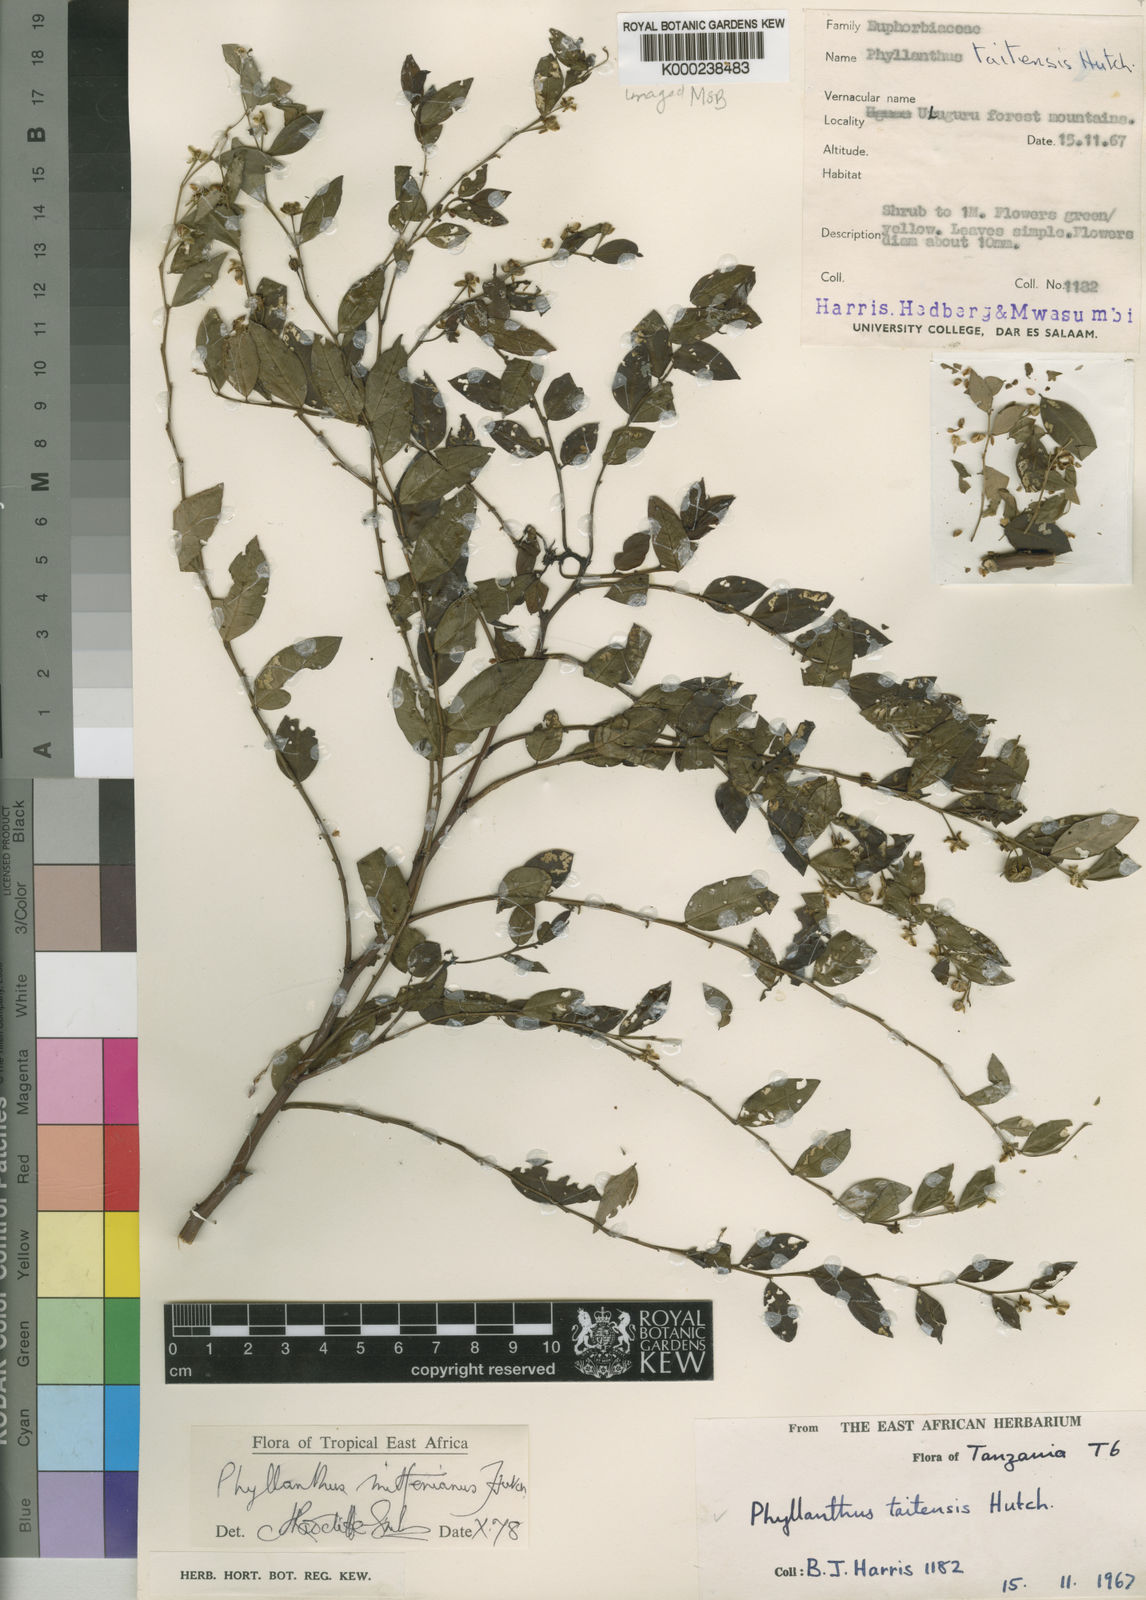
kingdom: Plantae
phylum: Tracheophyta
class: Magnoliopsida
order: Malpighiales
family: Phyllanthaceae
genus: Phyllanthus
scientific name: Phyllanthus mittenianus
